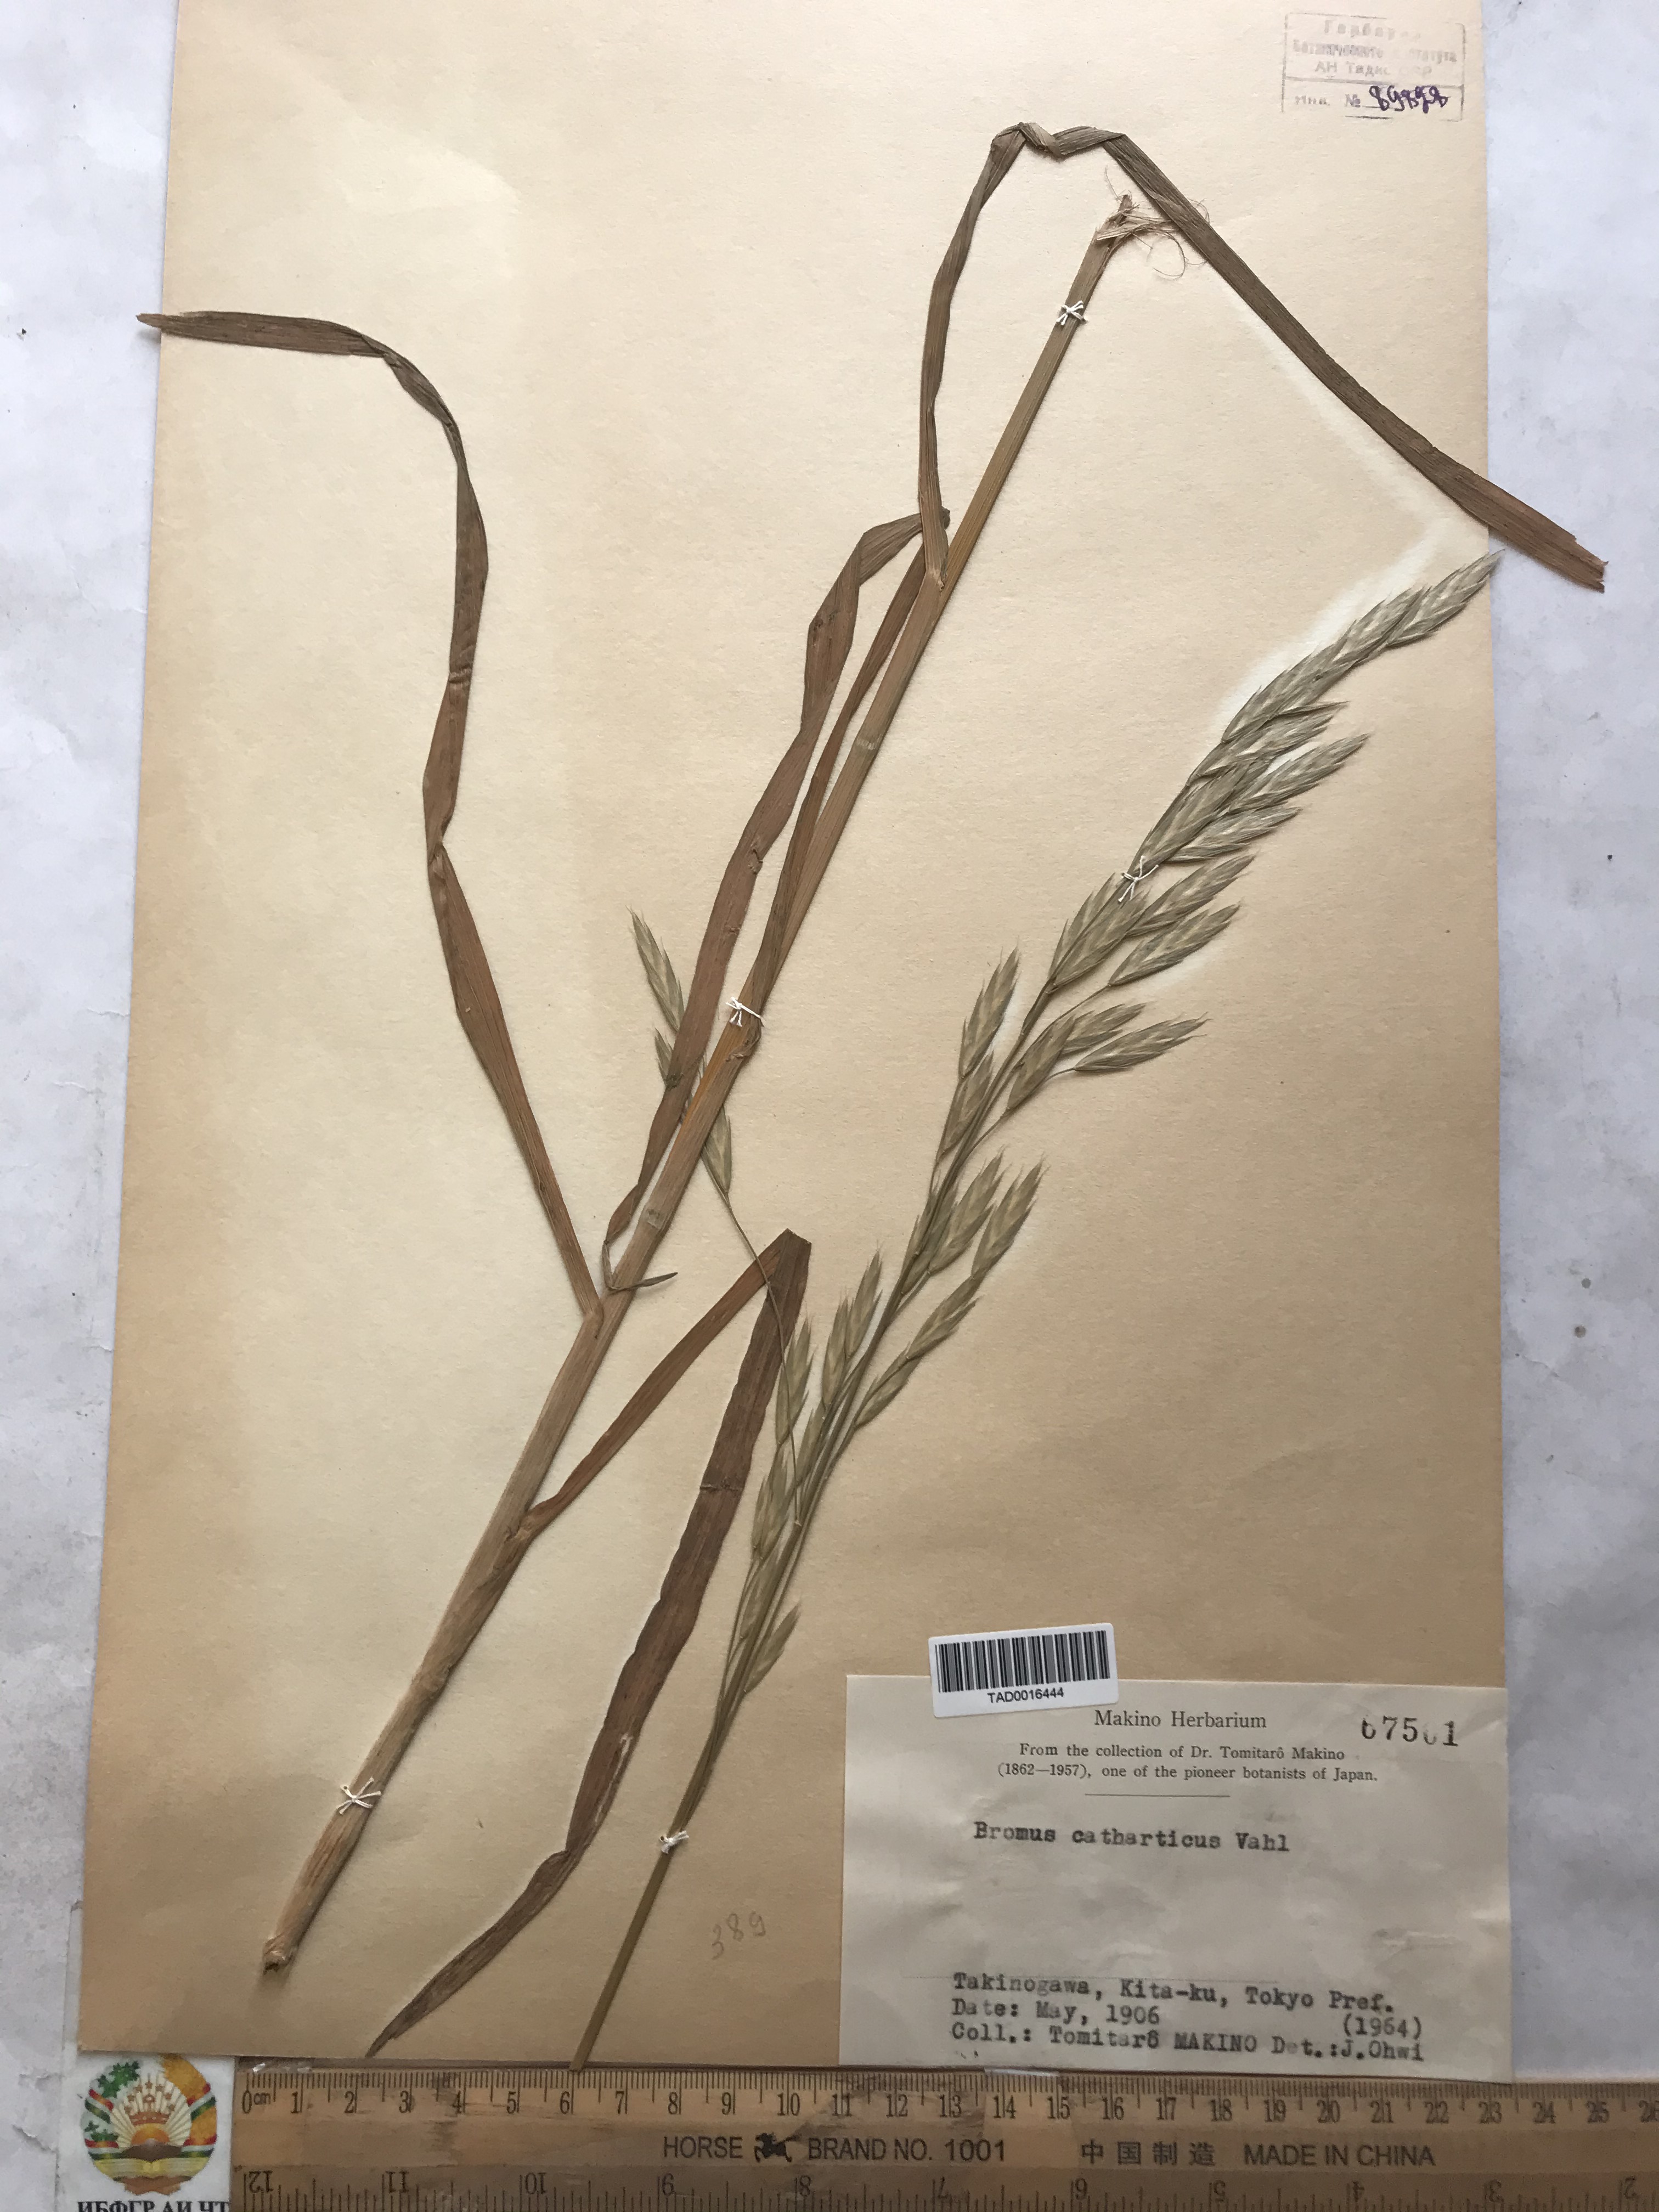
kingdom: Plantae
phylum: Tracheophyta
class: Liliopsida
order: Poales
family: Poaceae
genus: Bromus
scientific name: Bromus catharticus
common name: Rescuegrass
